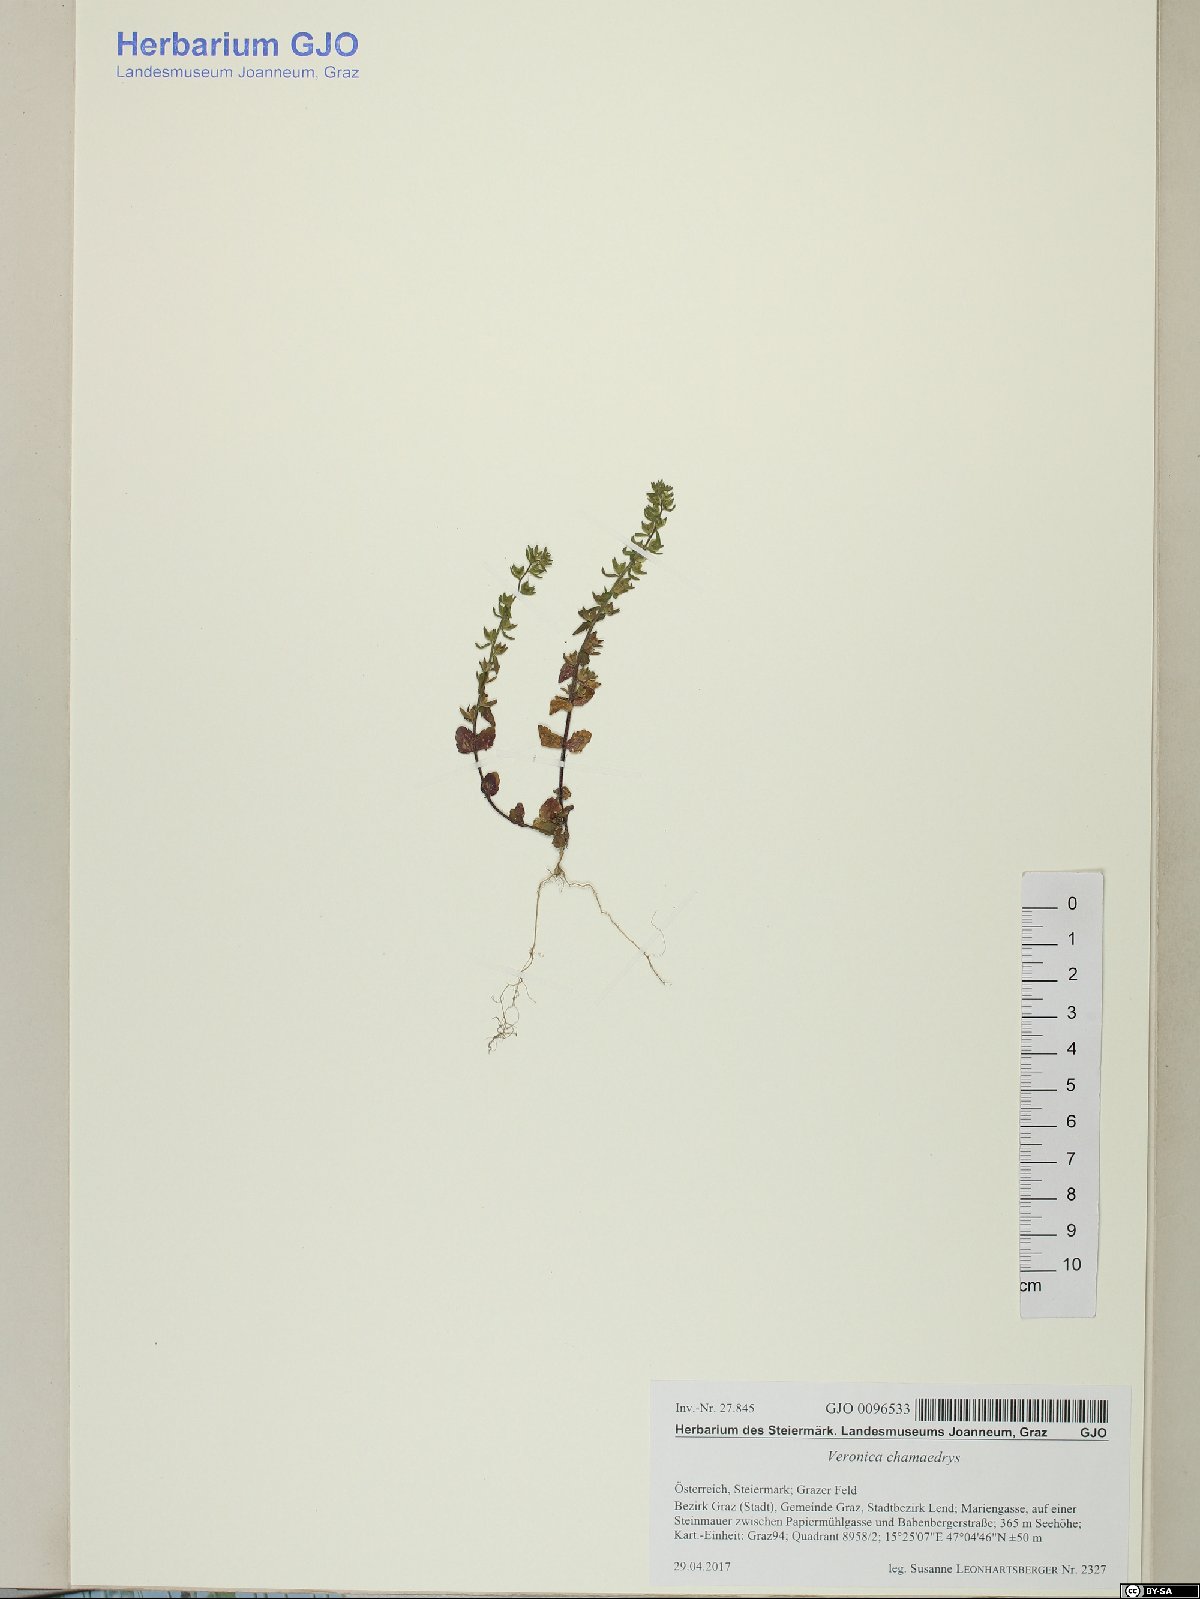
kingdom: Plantae
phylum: Tracheophyta
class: Magnoliopsida
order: Lamiales
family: Plantaginaceae
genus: Veronica
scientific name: Veronica chamaedrys
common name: Germander speedwell
